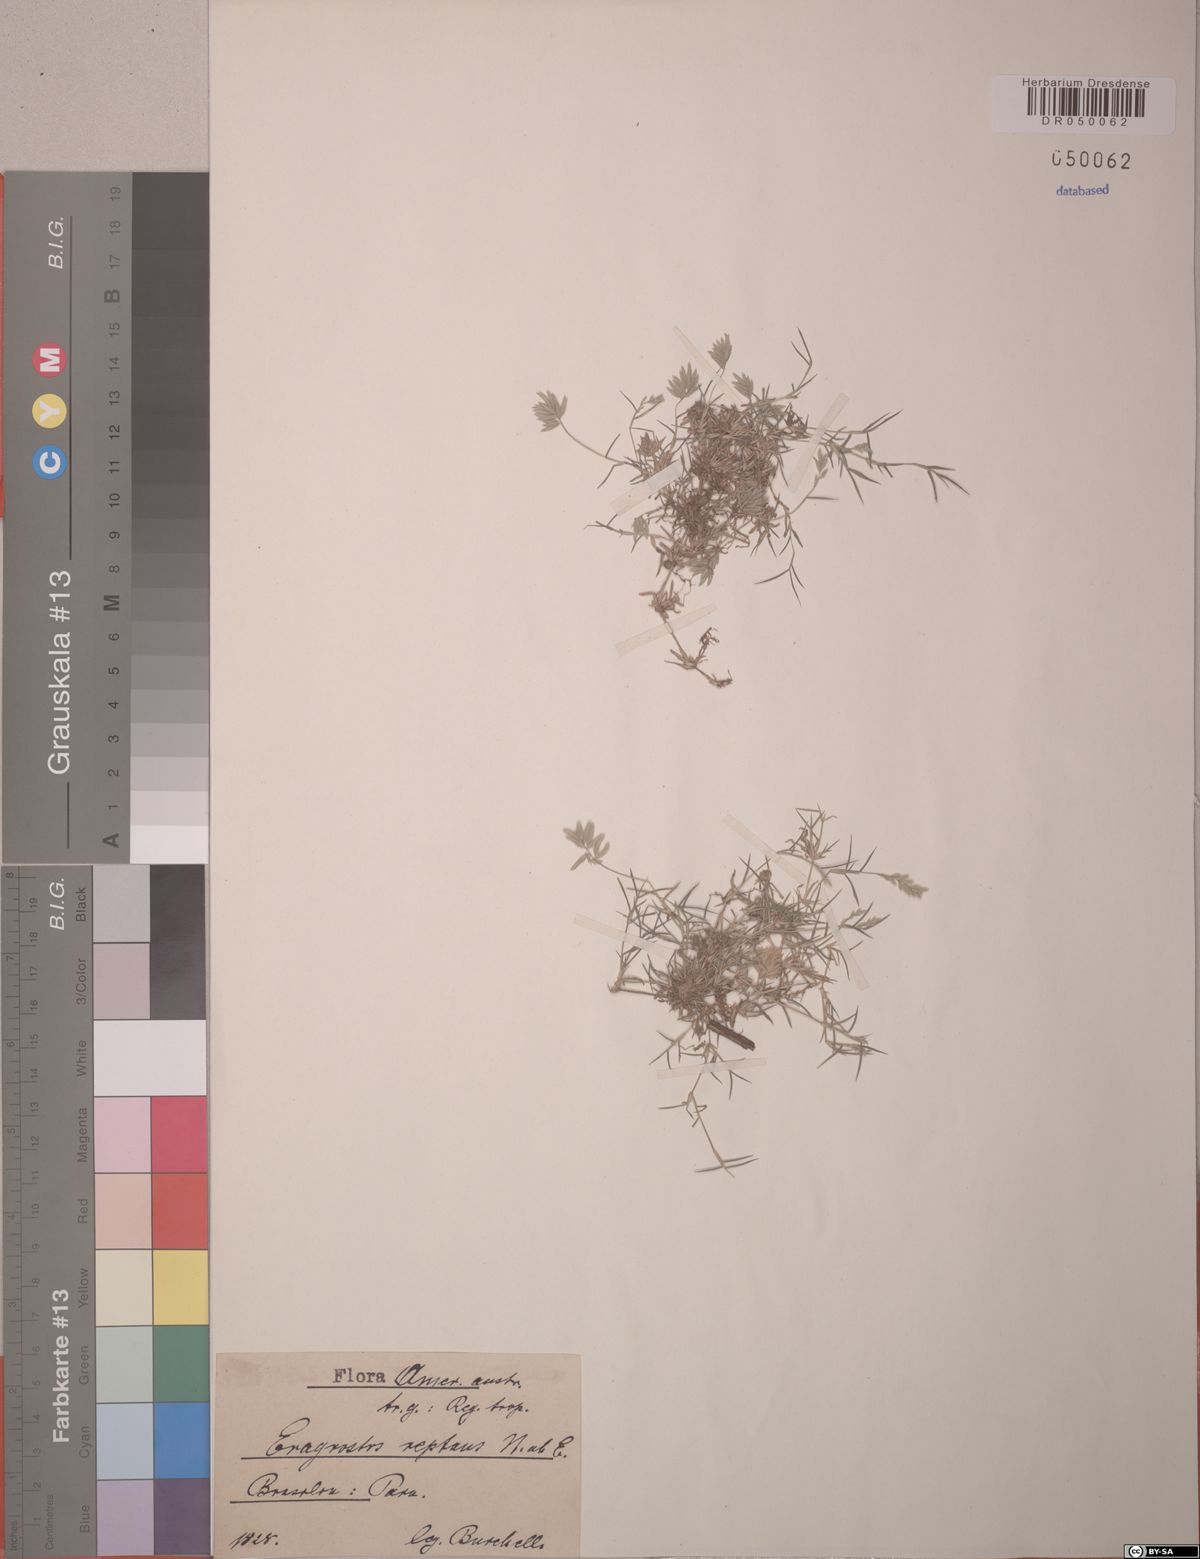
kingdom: Plantae
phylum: Tracheophyta
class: Liliopsida
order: Poales
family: Poaceae
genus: Eragrostis
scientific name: Eragrostis reptans
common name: Creeping love grass
